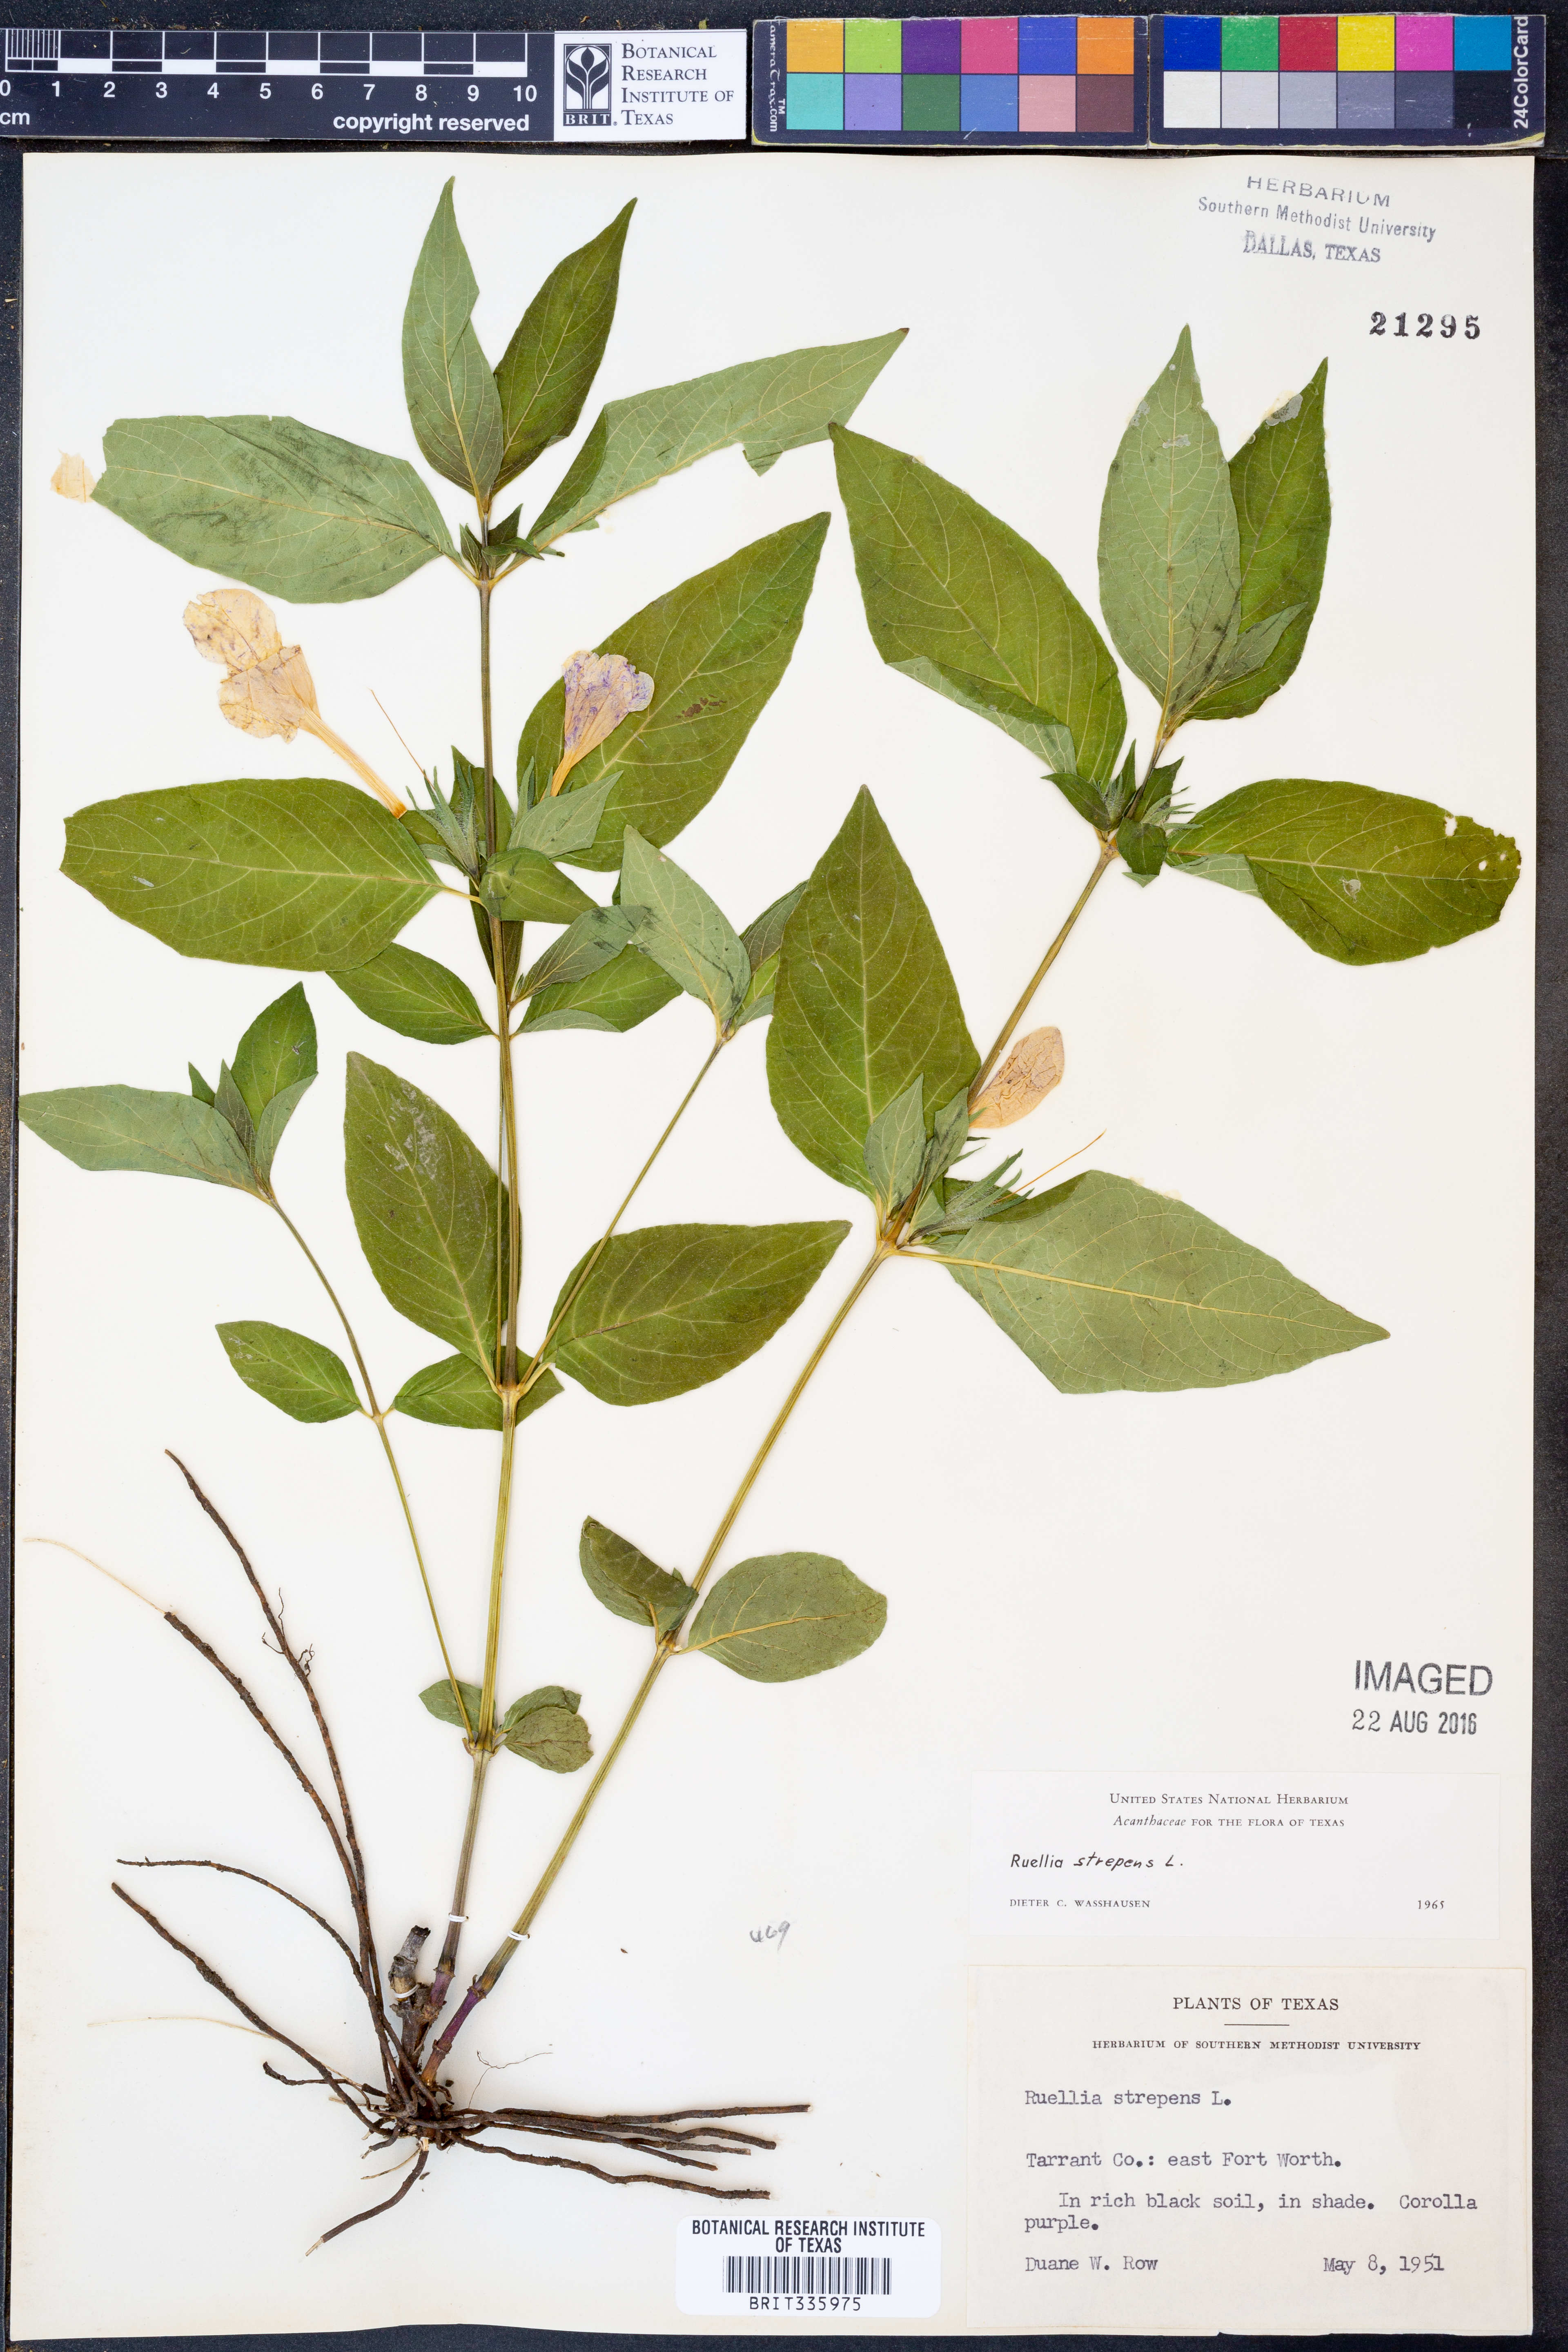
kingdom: Plantae
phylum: Tracheophyta
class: Magnoliopsida
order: Lamiales
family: Acanthaceae
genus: Ruellia
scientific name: Ruellia strepens
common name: Limestone wild petunia
